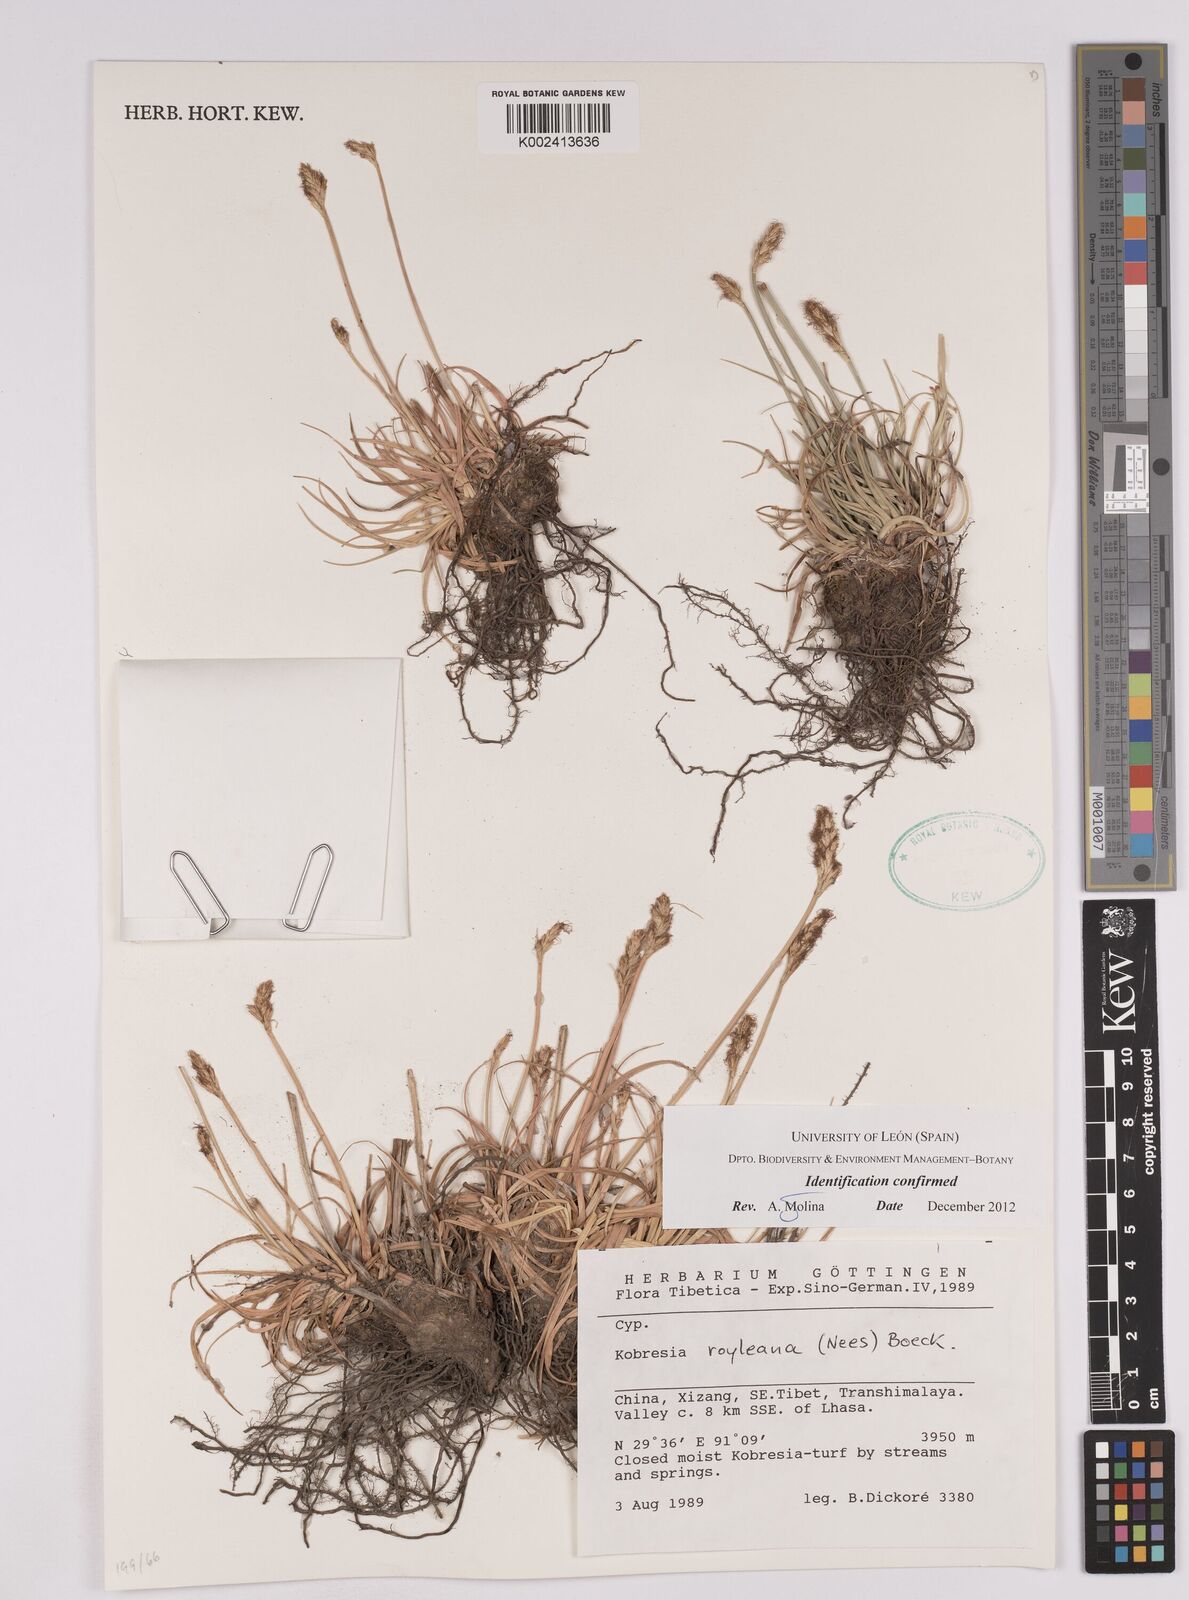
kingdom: Plantae
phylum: Tracheophyta
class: Liliopsida
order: Poales
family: Cyperaceae
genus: Carex
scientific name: Carex kokanica
